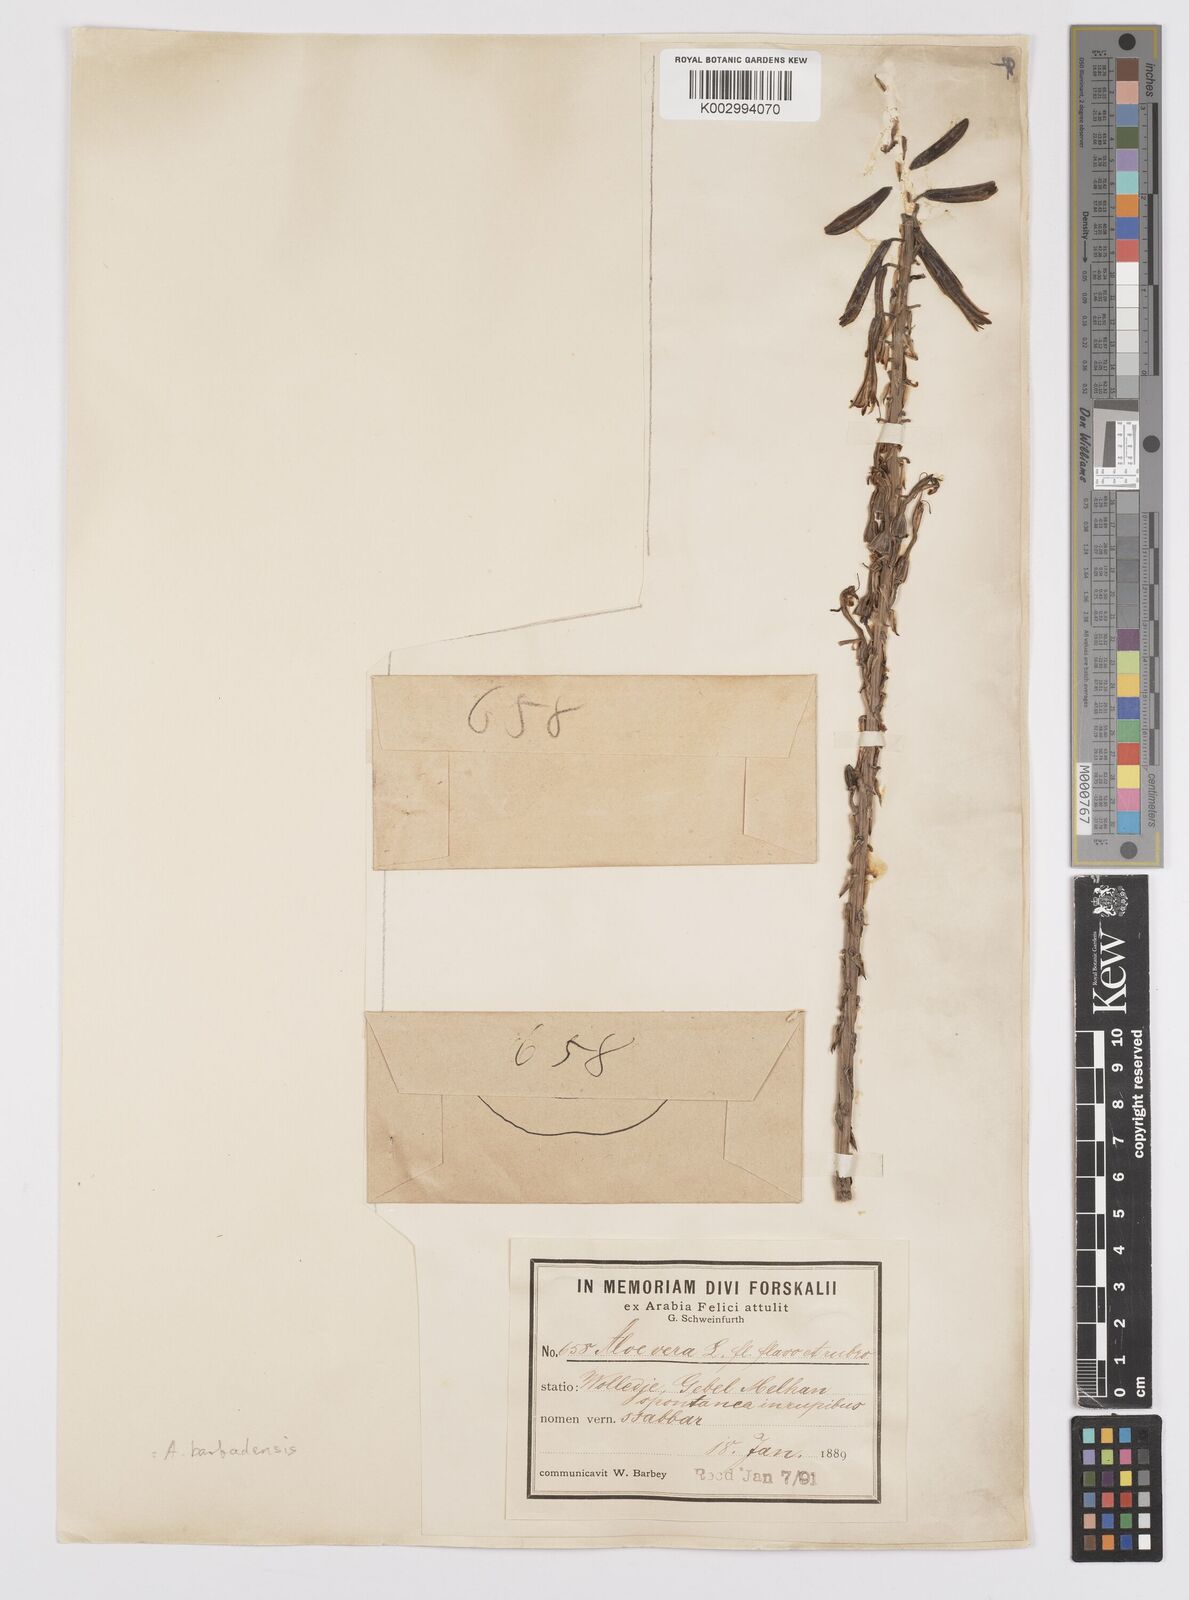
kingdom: Plantae
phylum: Tracheophyta
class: Liliopsida
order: Asparagales
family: Asphodelaceae
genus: Aloe
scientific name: Aloe officinalis
